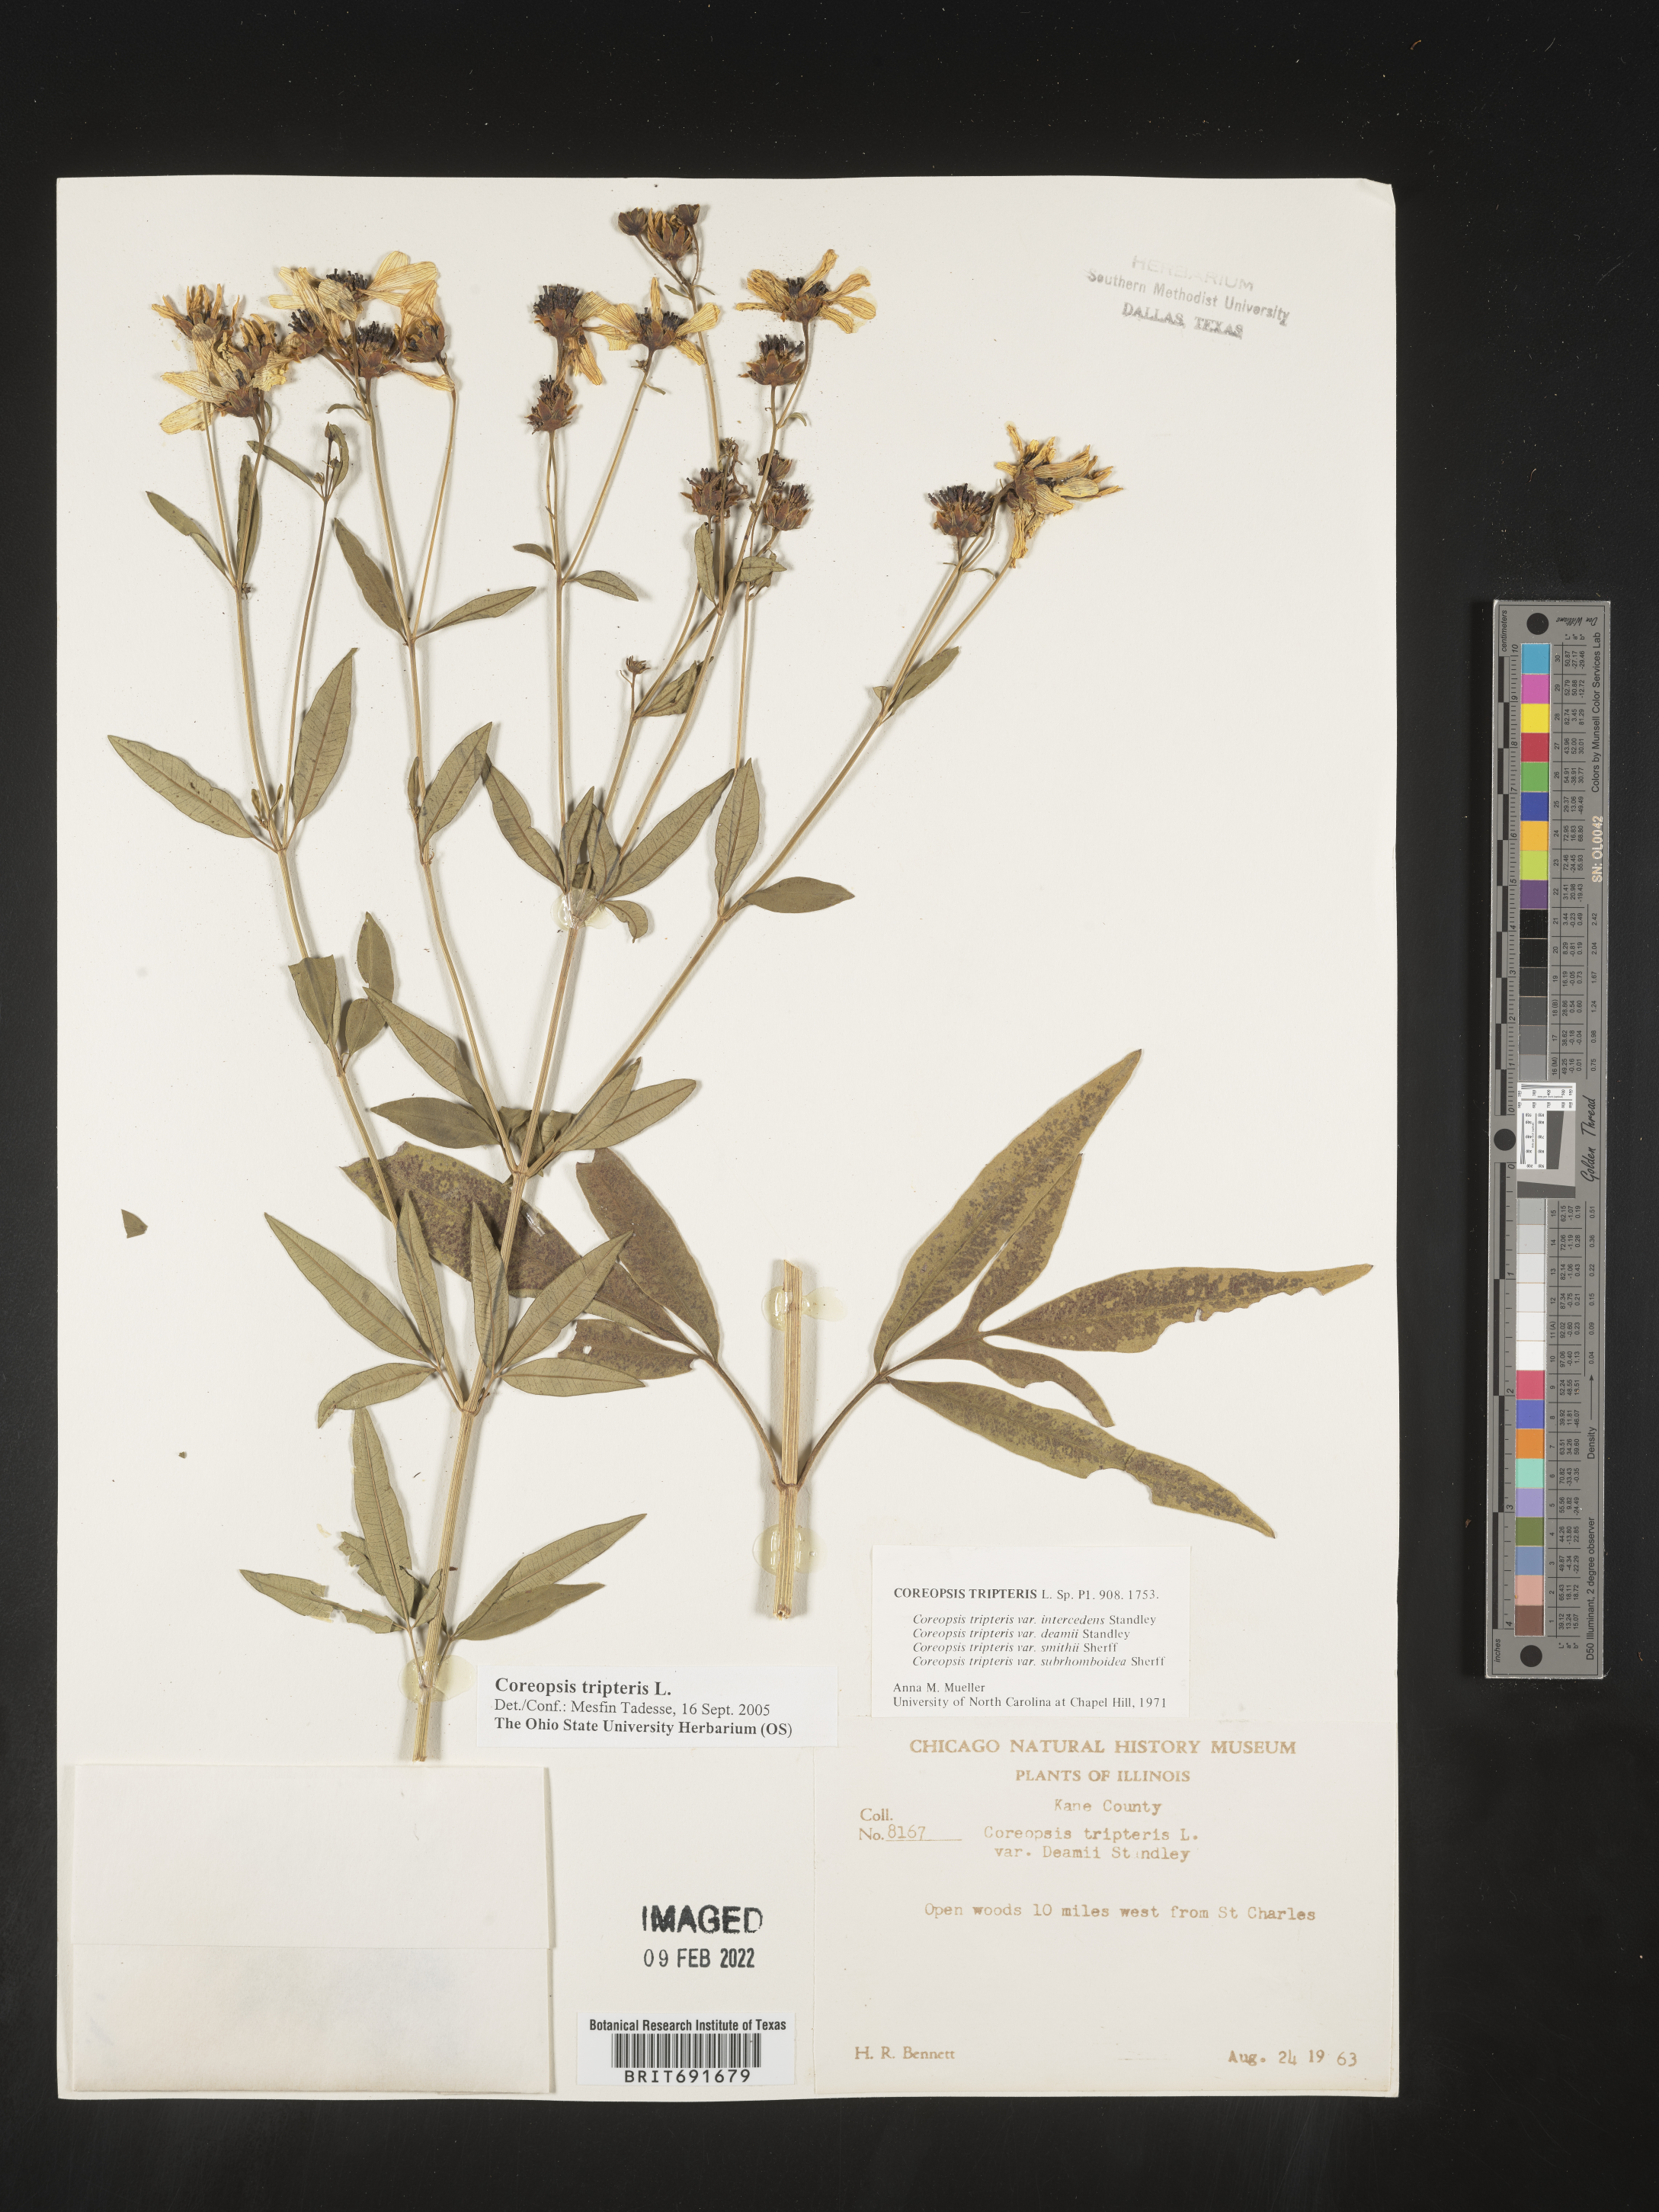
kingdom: Plantae
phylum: Tracheophyta
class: Magnoliopsida
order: Asterales
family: Asteraceae
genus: Coreopsis
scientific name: Coreopsis tripteris
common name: Tall coreopsis
